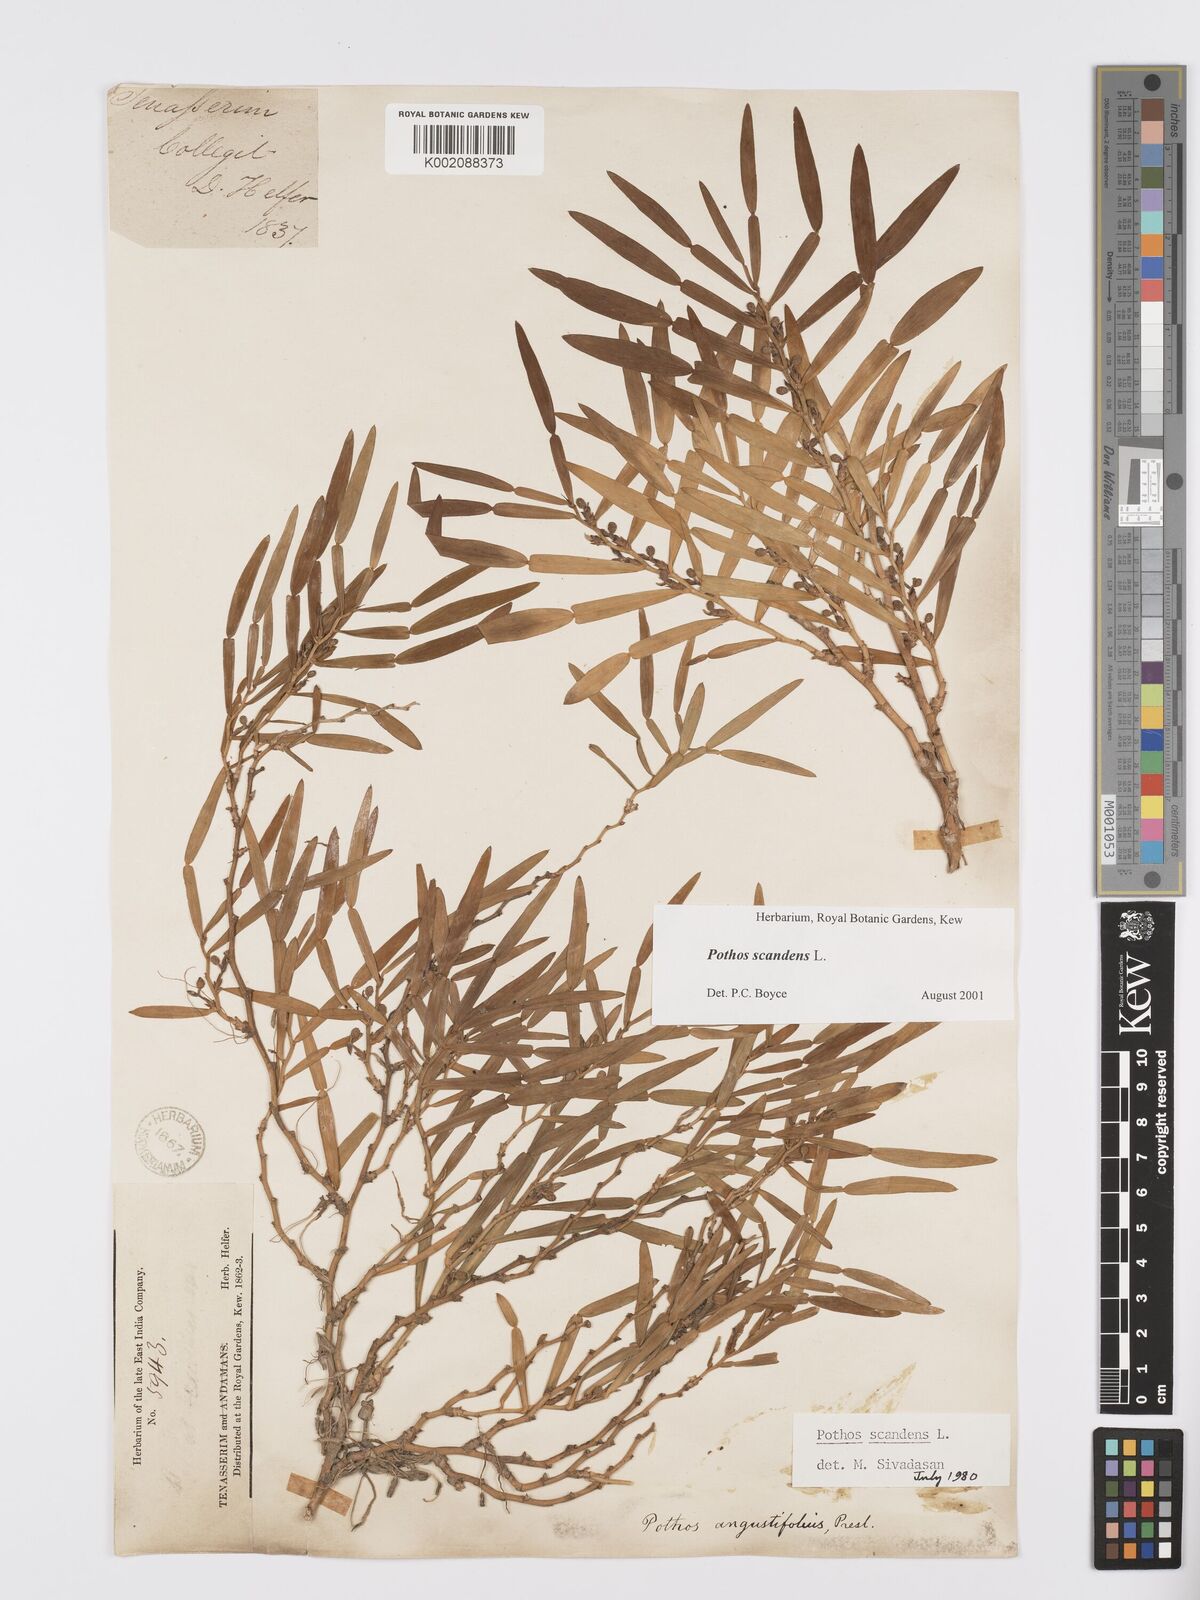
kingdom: Plantae
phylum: Tracheophyta
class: Liliopsida
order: Alismatales
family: Araceae
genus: Pothos
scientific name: Pothos scandens
